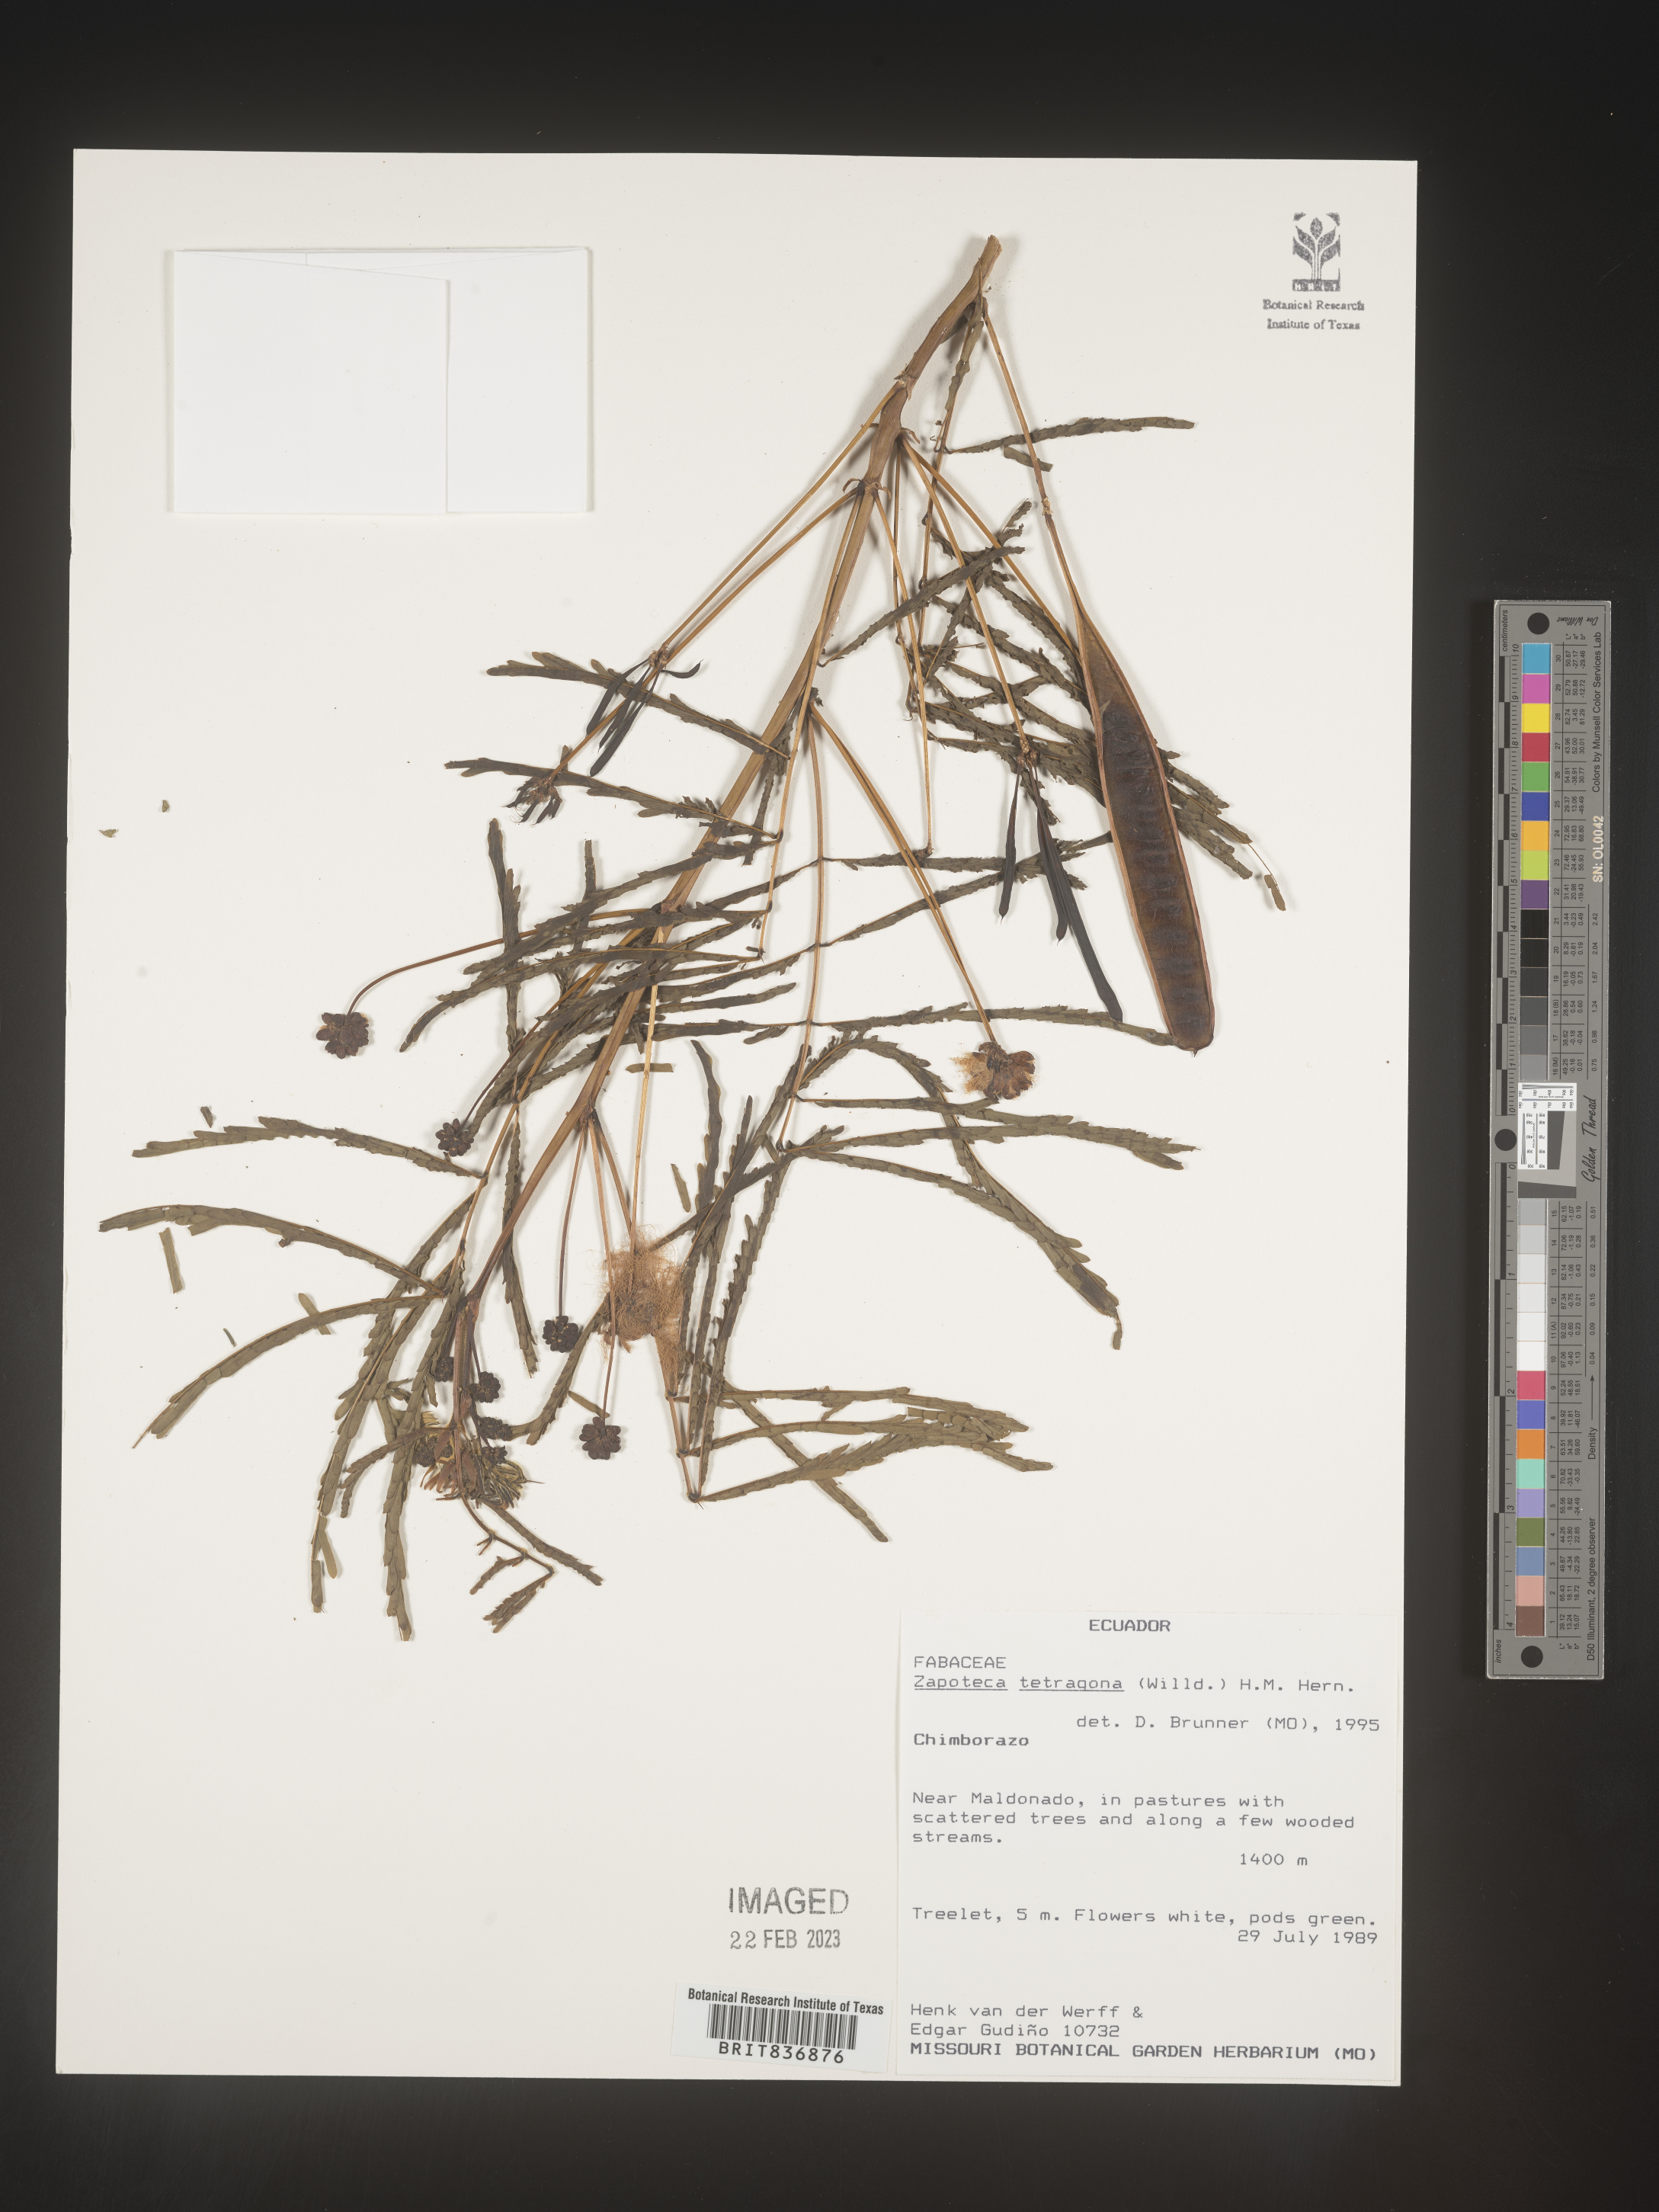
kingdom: Plantae
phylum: Tracheophyta
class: Magnoliopsida
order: Fabales
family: Fabaceae
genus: Zapoteca
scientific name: Zapoteca
